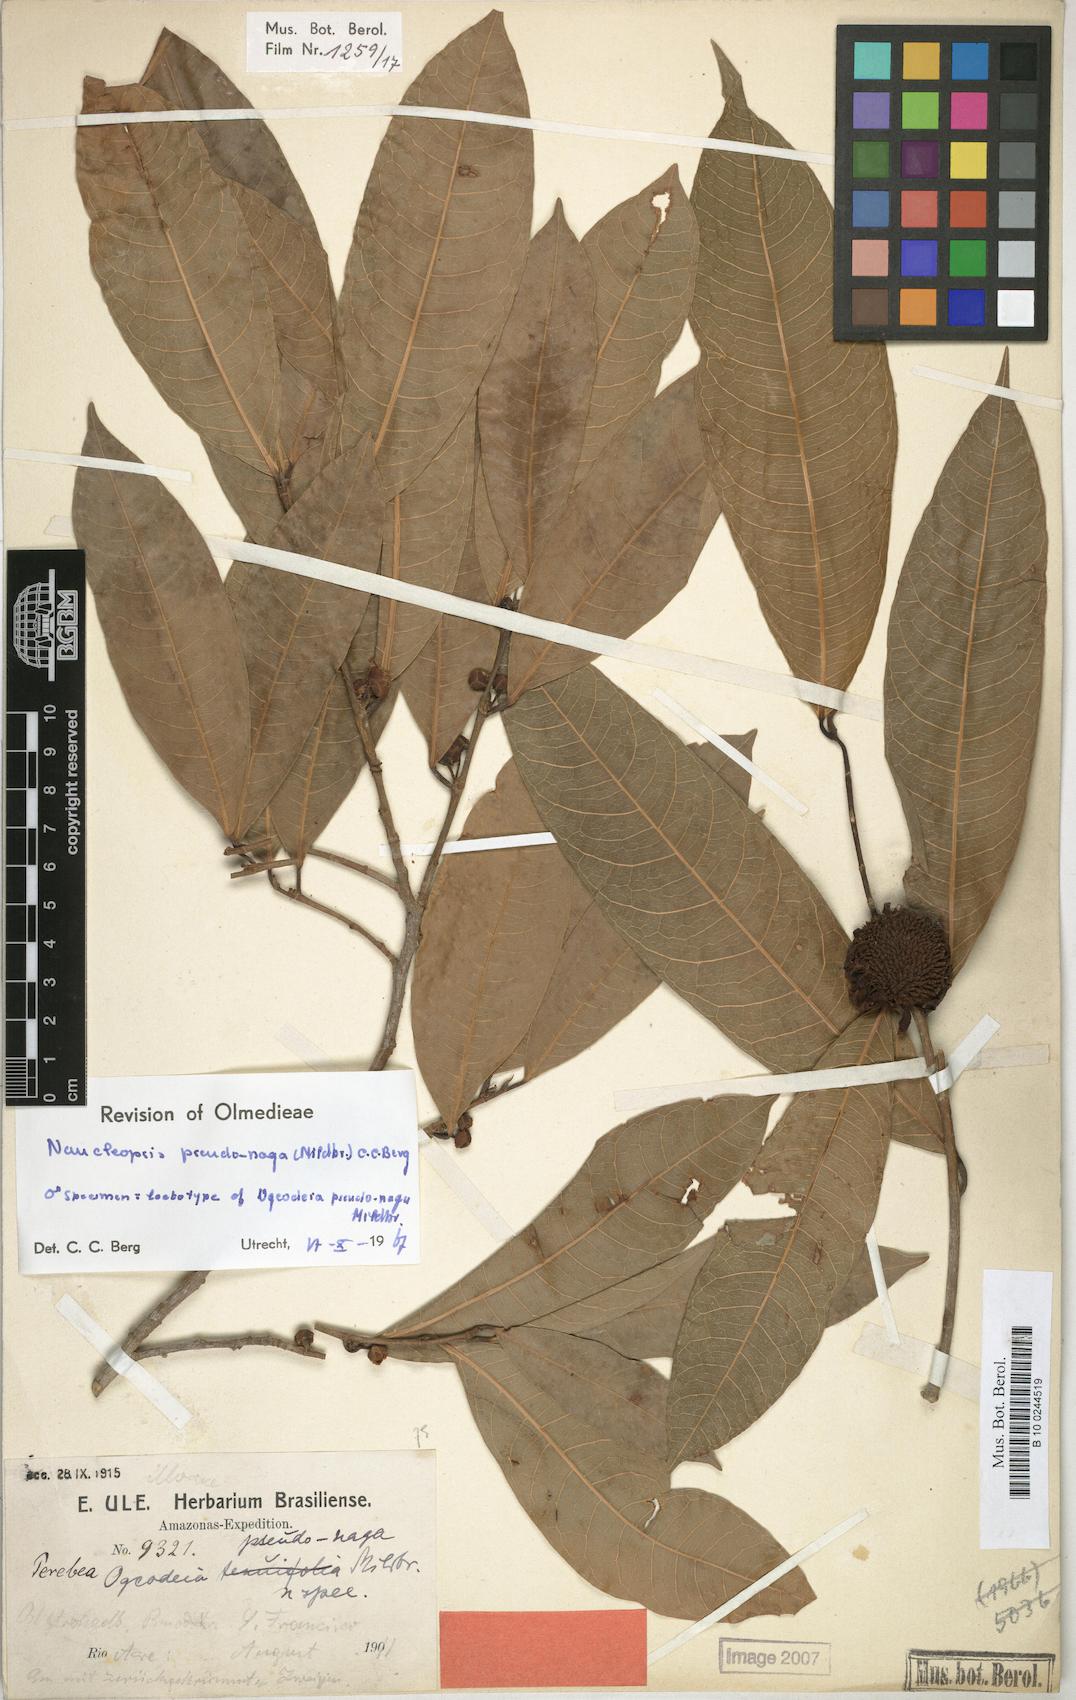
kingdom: Plantae
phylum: Tracheophyta
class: Magnoliopsida
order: Rosales
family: Moraceae
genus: Naucleopsis
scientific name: Naucleopsis pseudonaga
